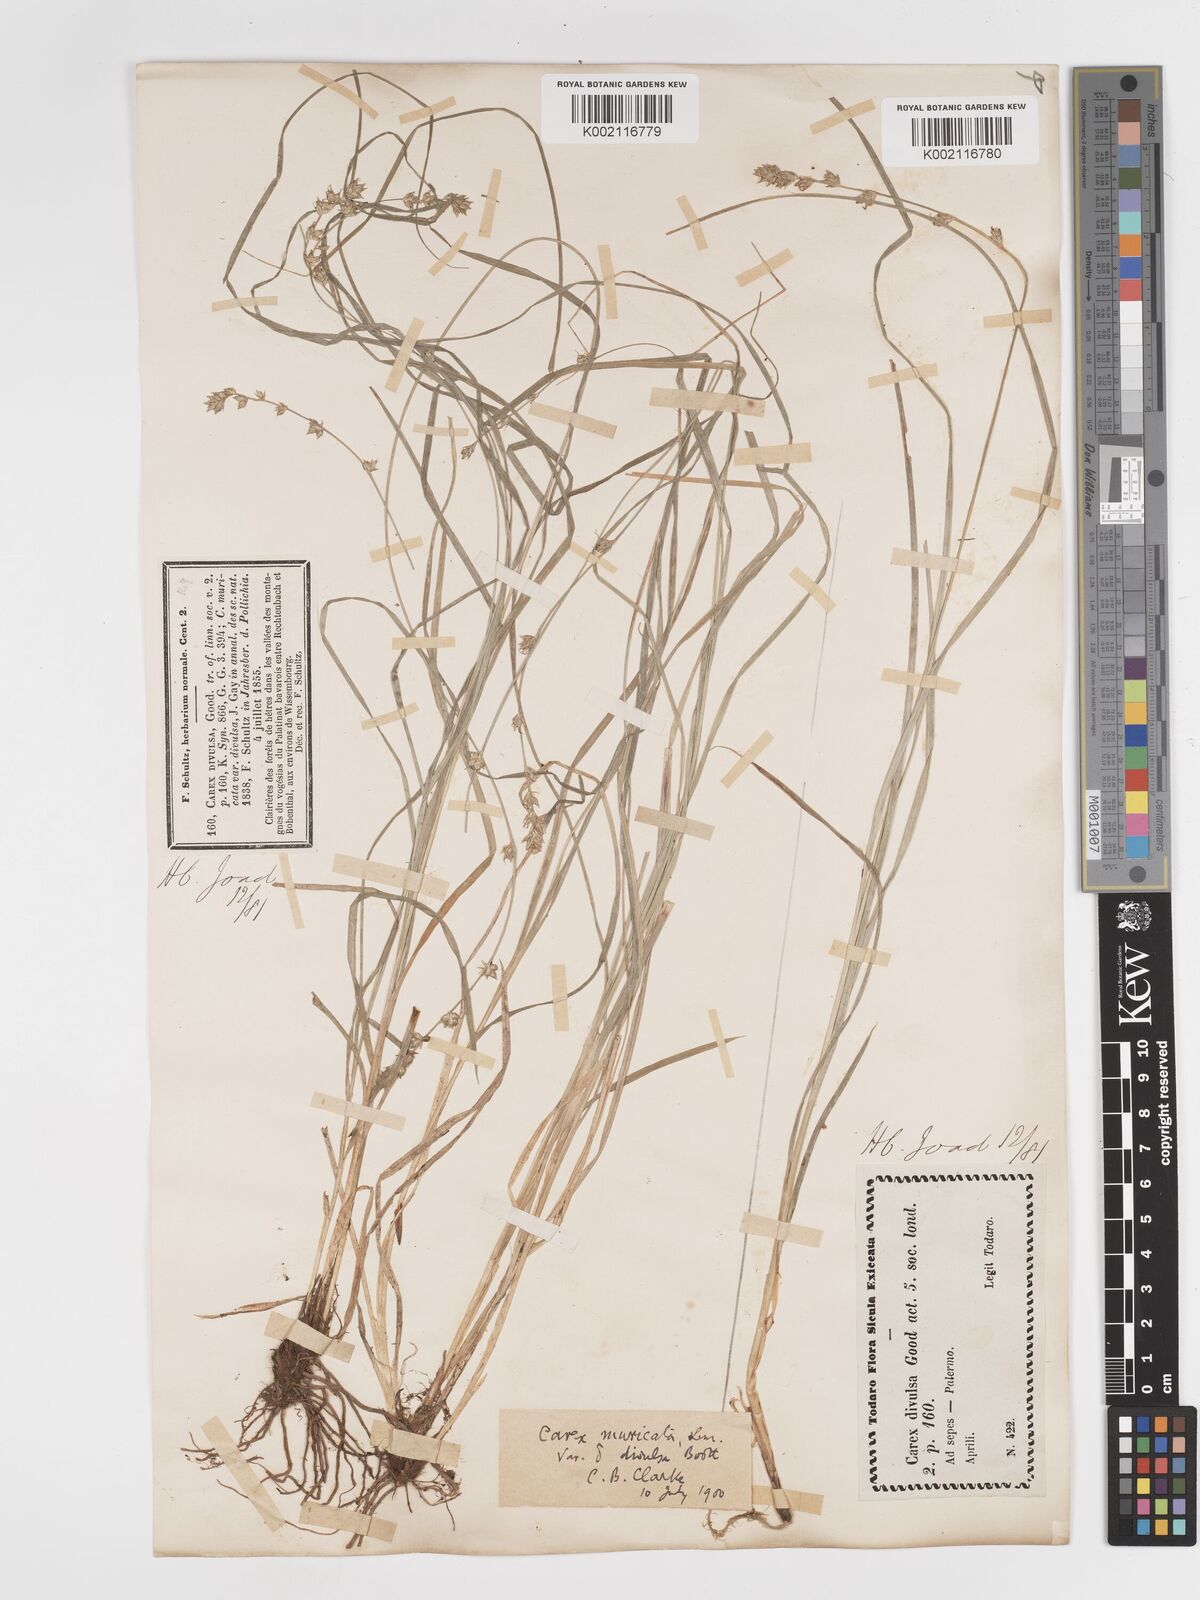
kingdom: Plantae
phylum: Tracheophyta
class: Liliopsida
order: Poales
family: Cyperaceae
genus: Carex
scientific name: Carex divulsa
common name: Grassland sedge
